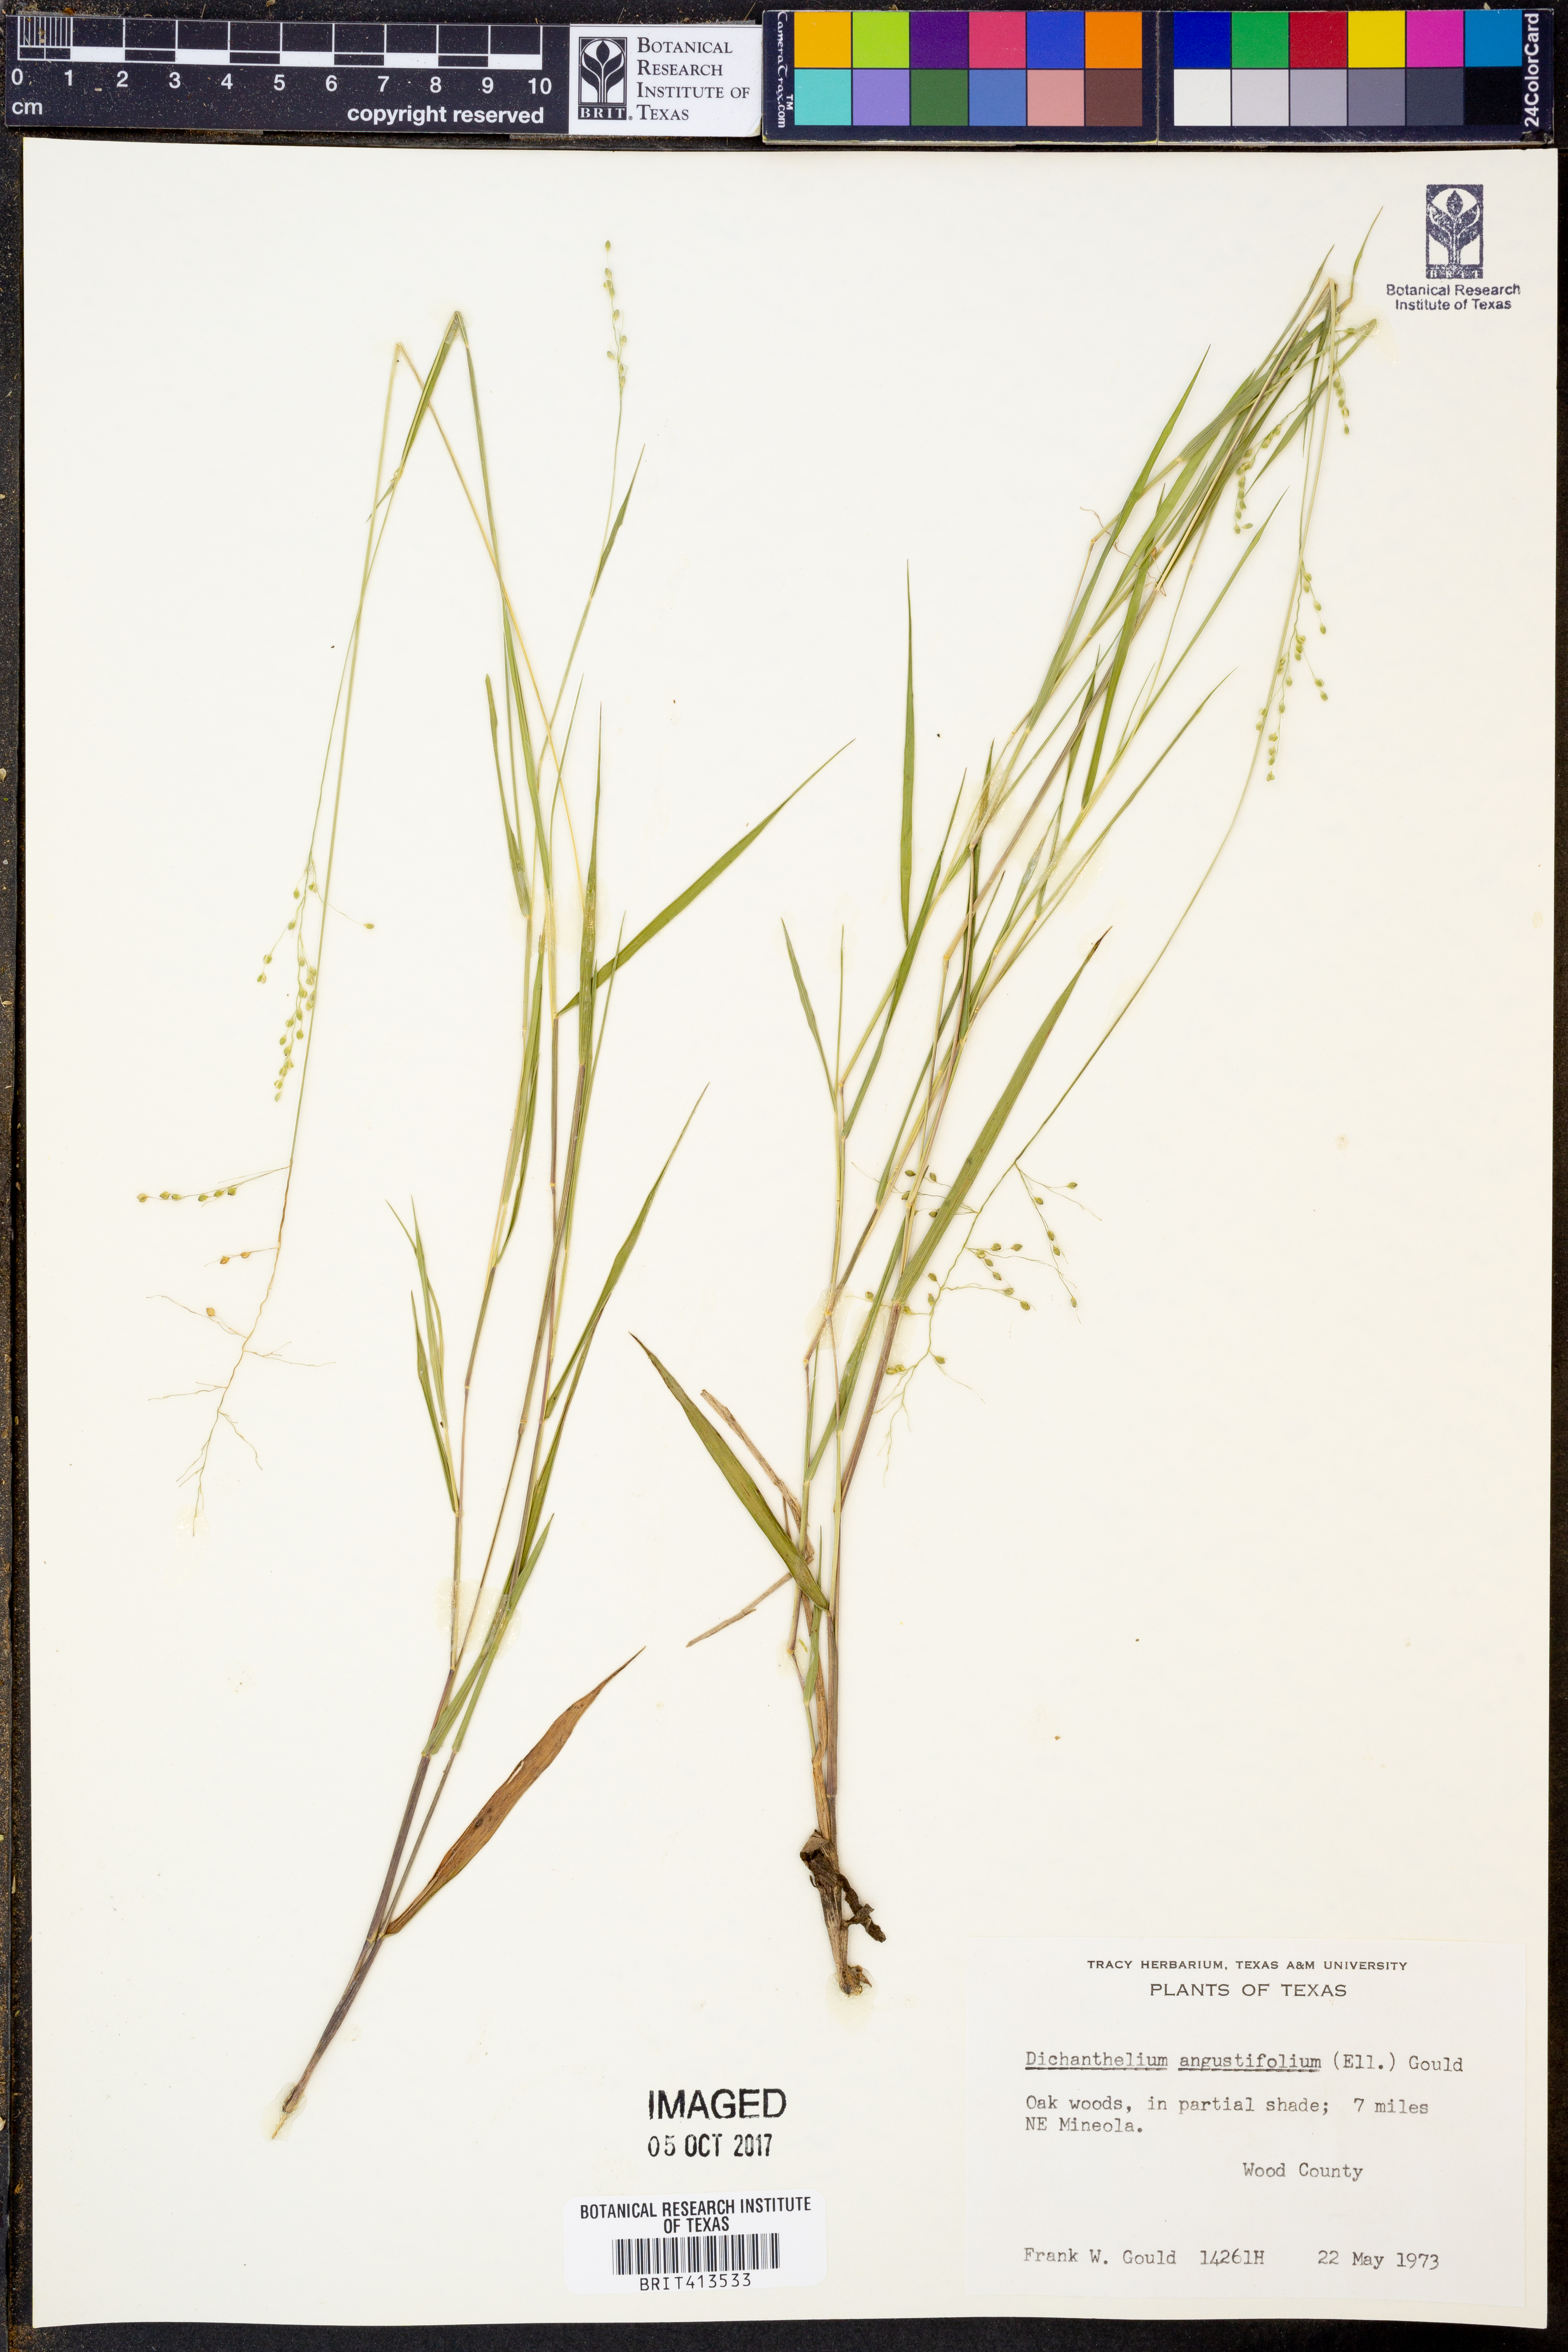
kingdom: Plantae
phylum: Tracheophyta
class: Liliopsida
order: Poales
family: Poaceae
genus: Dichanthelium
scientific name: Dichanthelium angustifolium
